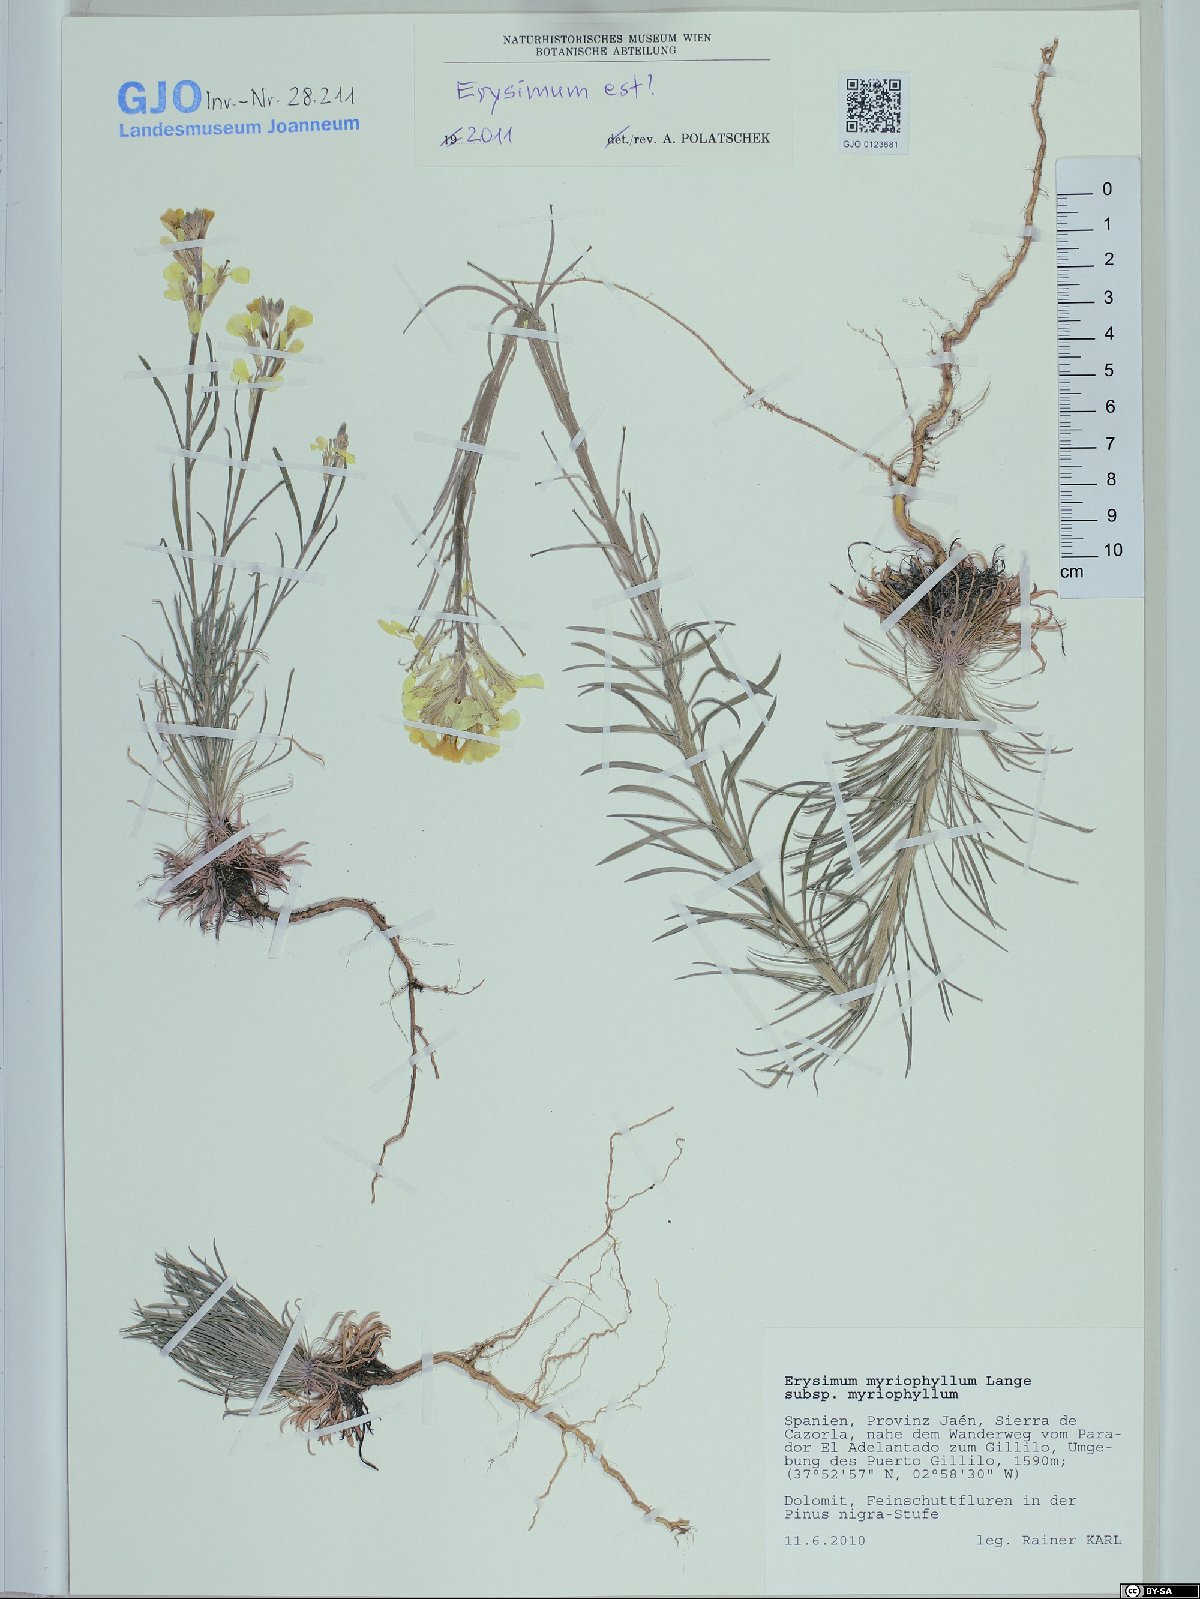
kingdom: Plantae
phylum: Tracheophyta
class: Magnoliopsida
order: Brassicales
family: Brassicaceae
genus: Erysimum
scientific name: Erysimum myriophyllum
